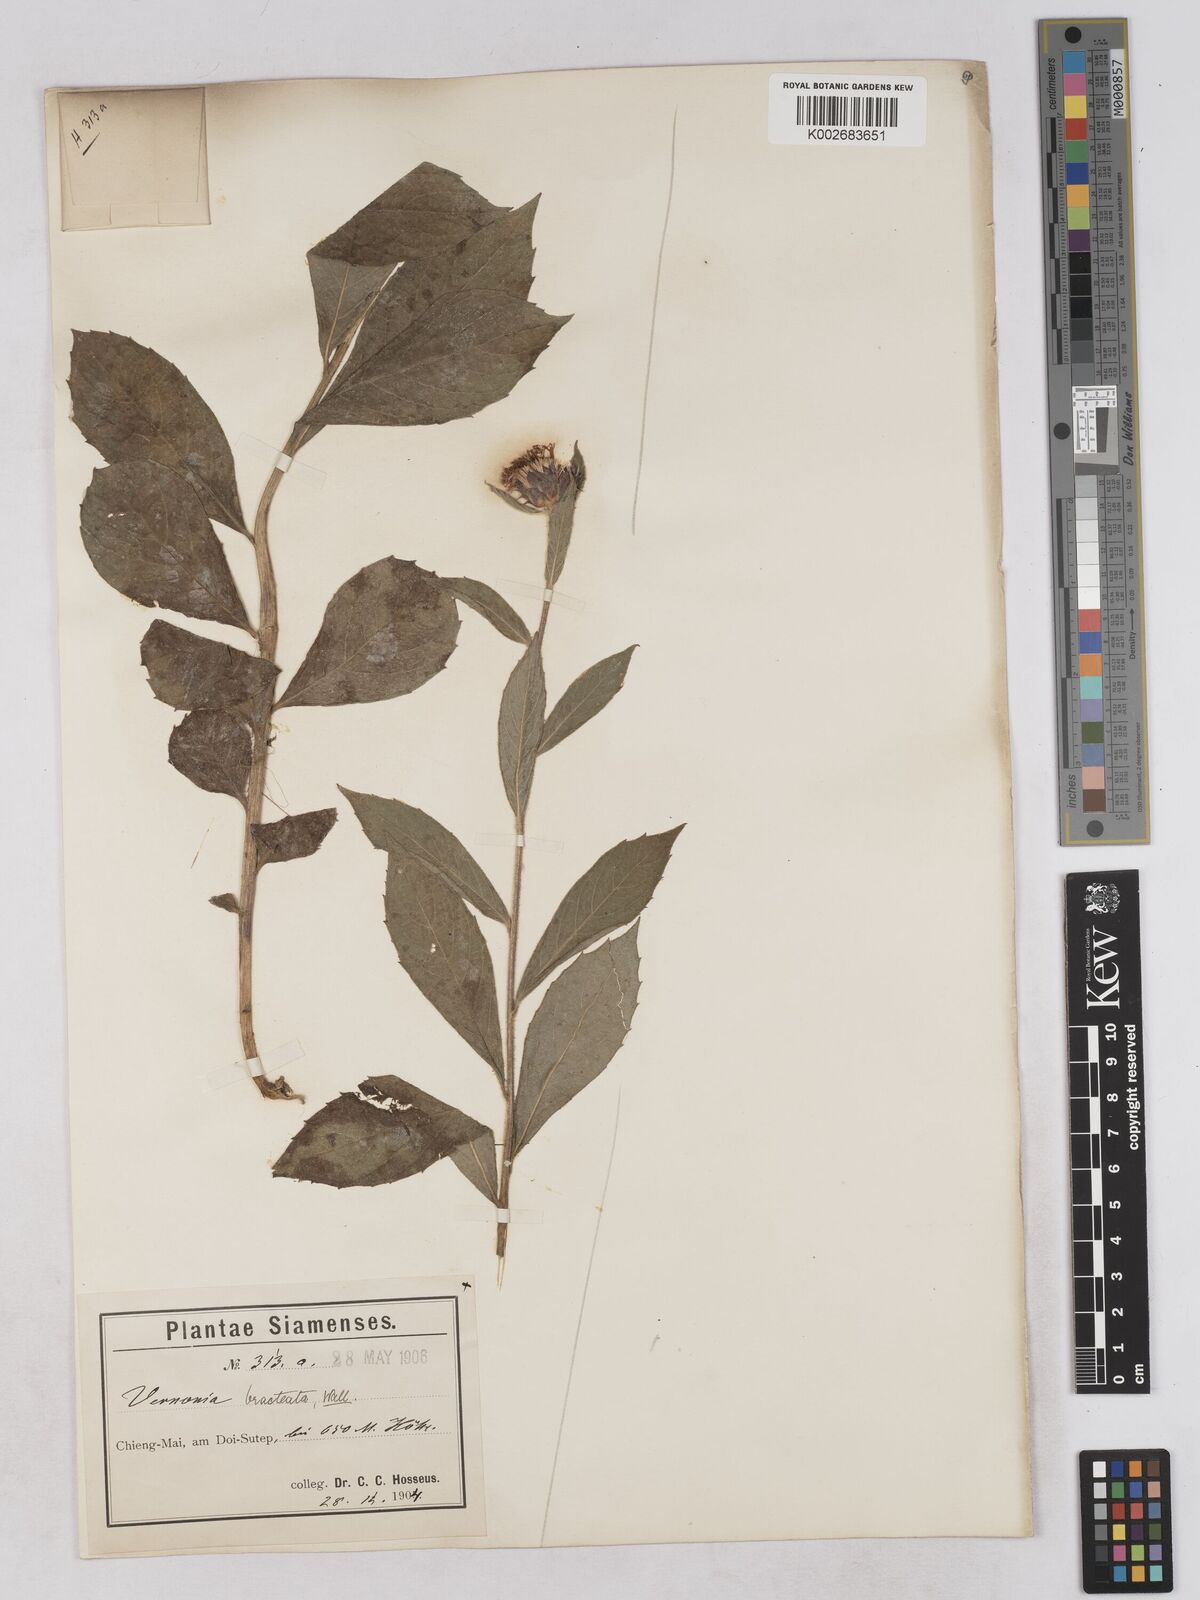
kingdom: Plantae
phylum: Tracheophyta
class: Magnoliopsida
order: Asterales
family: Asteraceae
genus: Acilepis
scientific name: Acilepis silhetensis
